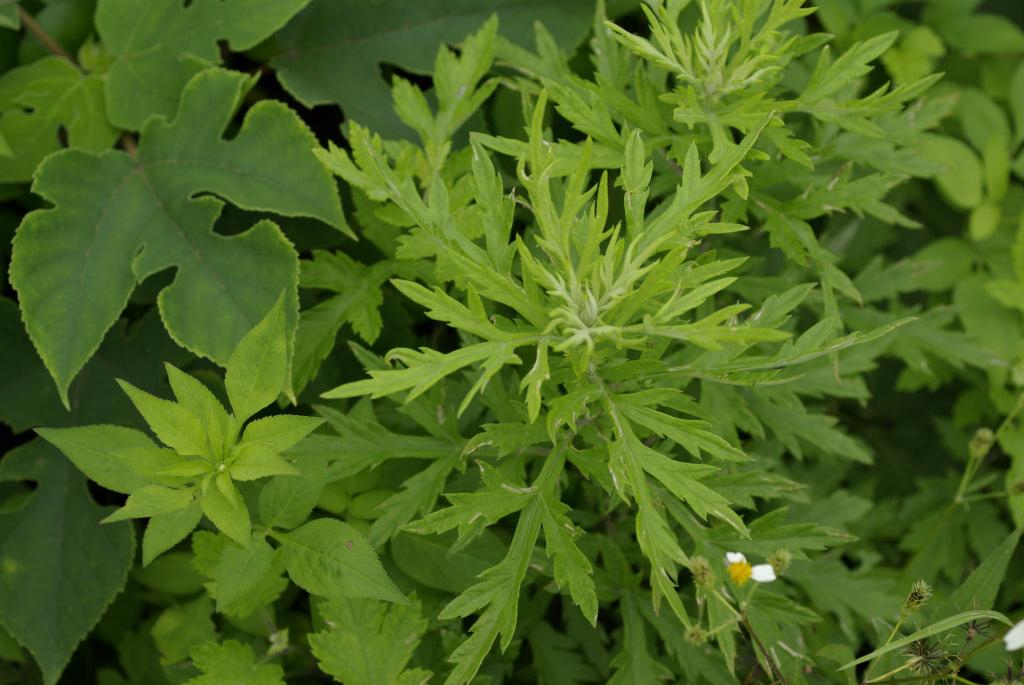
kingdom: Plantae
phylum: Tracheophyta
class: Magnoliopsida
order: Asterales
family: Asteraceae
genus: Artemisia
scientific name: Artemisia indica
